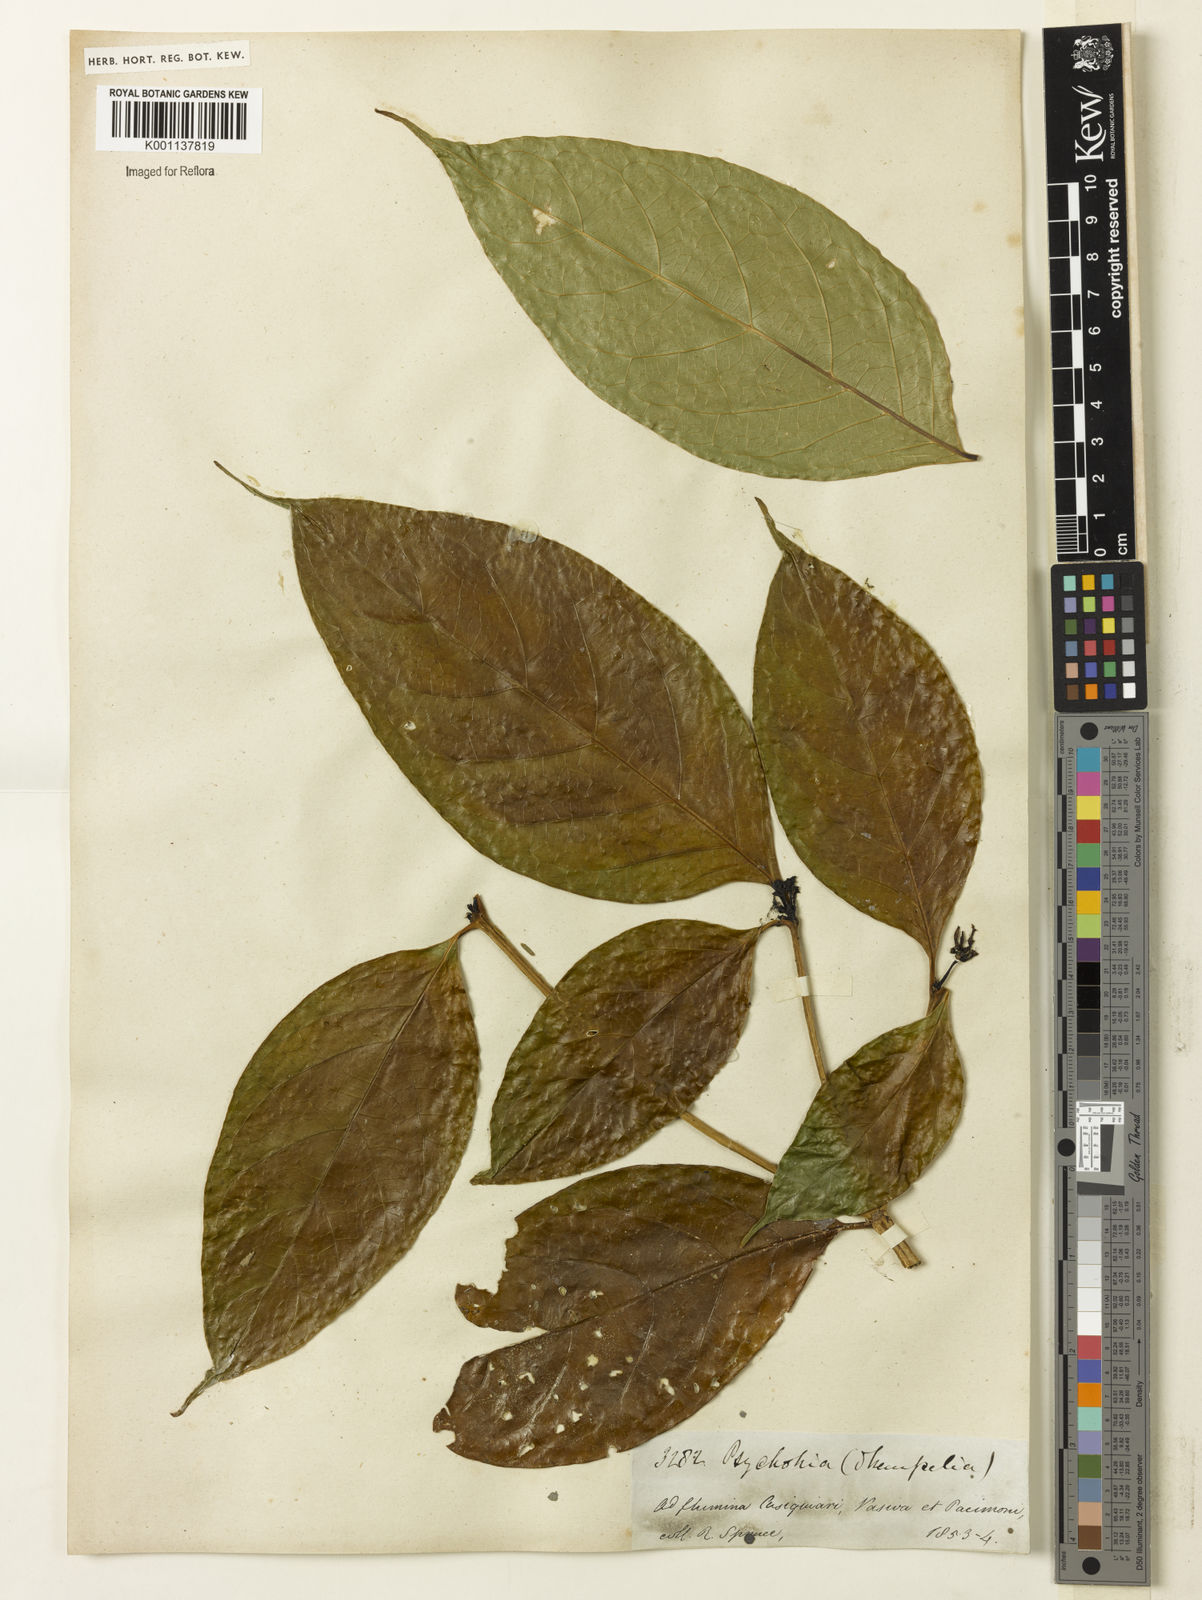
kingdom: Plantae
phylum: Tracheophyta
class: Magnoliopsida
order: Gentianales
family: Rubiaceae
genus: Coussarea
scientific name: Coussarea
